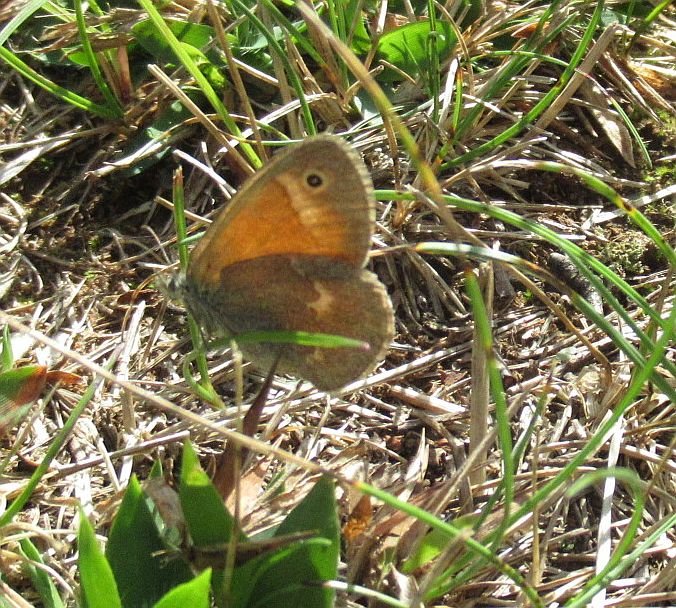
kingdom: Animalia
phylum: Arthropoda
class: Insecta
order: Lepidoptera
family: Nymphalidae
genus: Coenonympha
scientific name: Coenonympha tullia
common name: Large Heath
